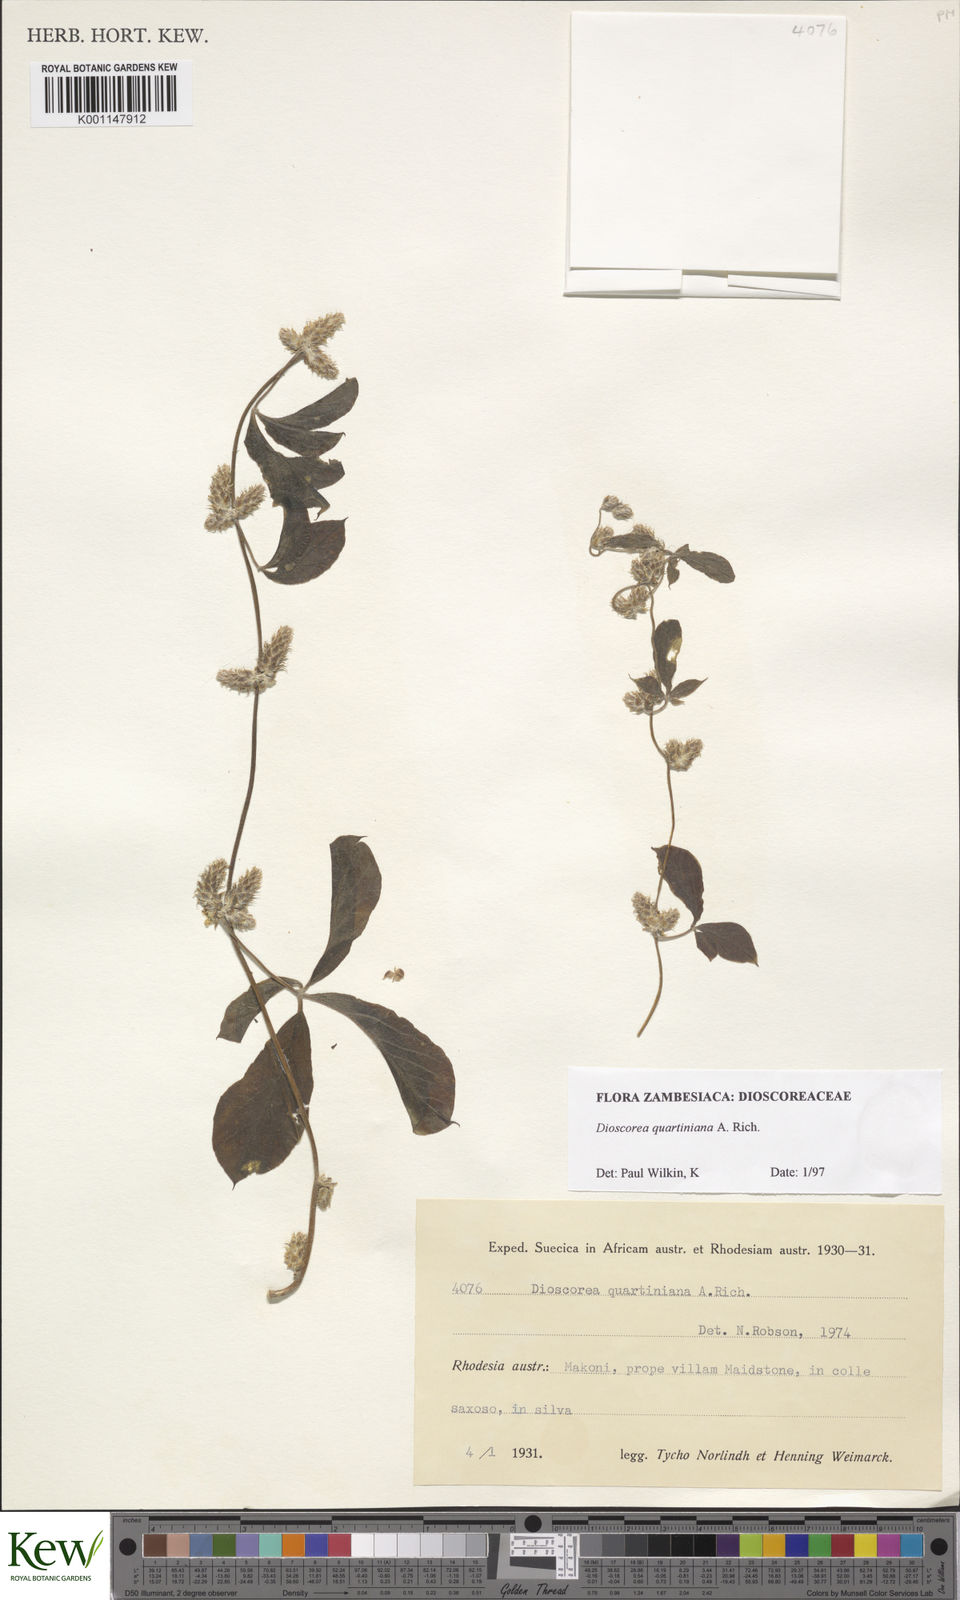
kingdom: Plantae
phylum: Tracheophyta
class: Liliopsida
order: Dioscoreales
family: Dioscoreaceae
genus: Dioscorea
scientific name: Dioscorea quartiniana
